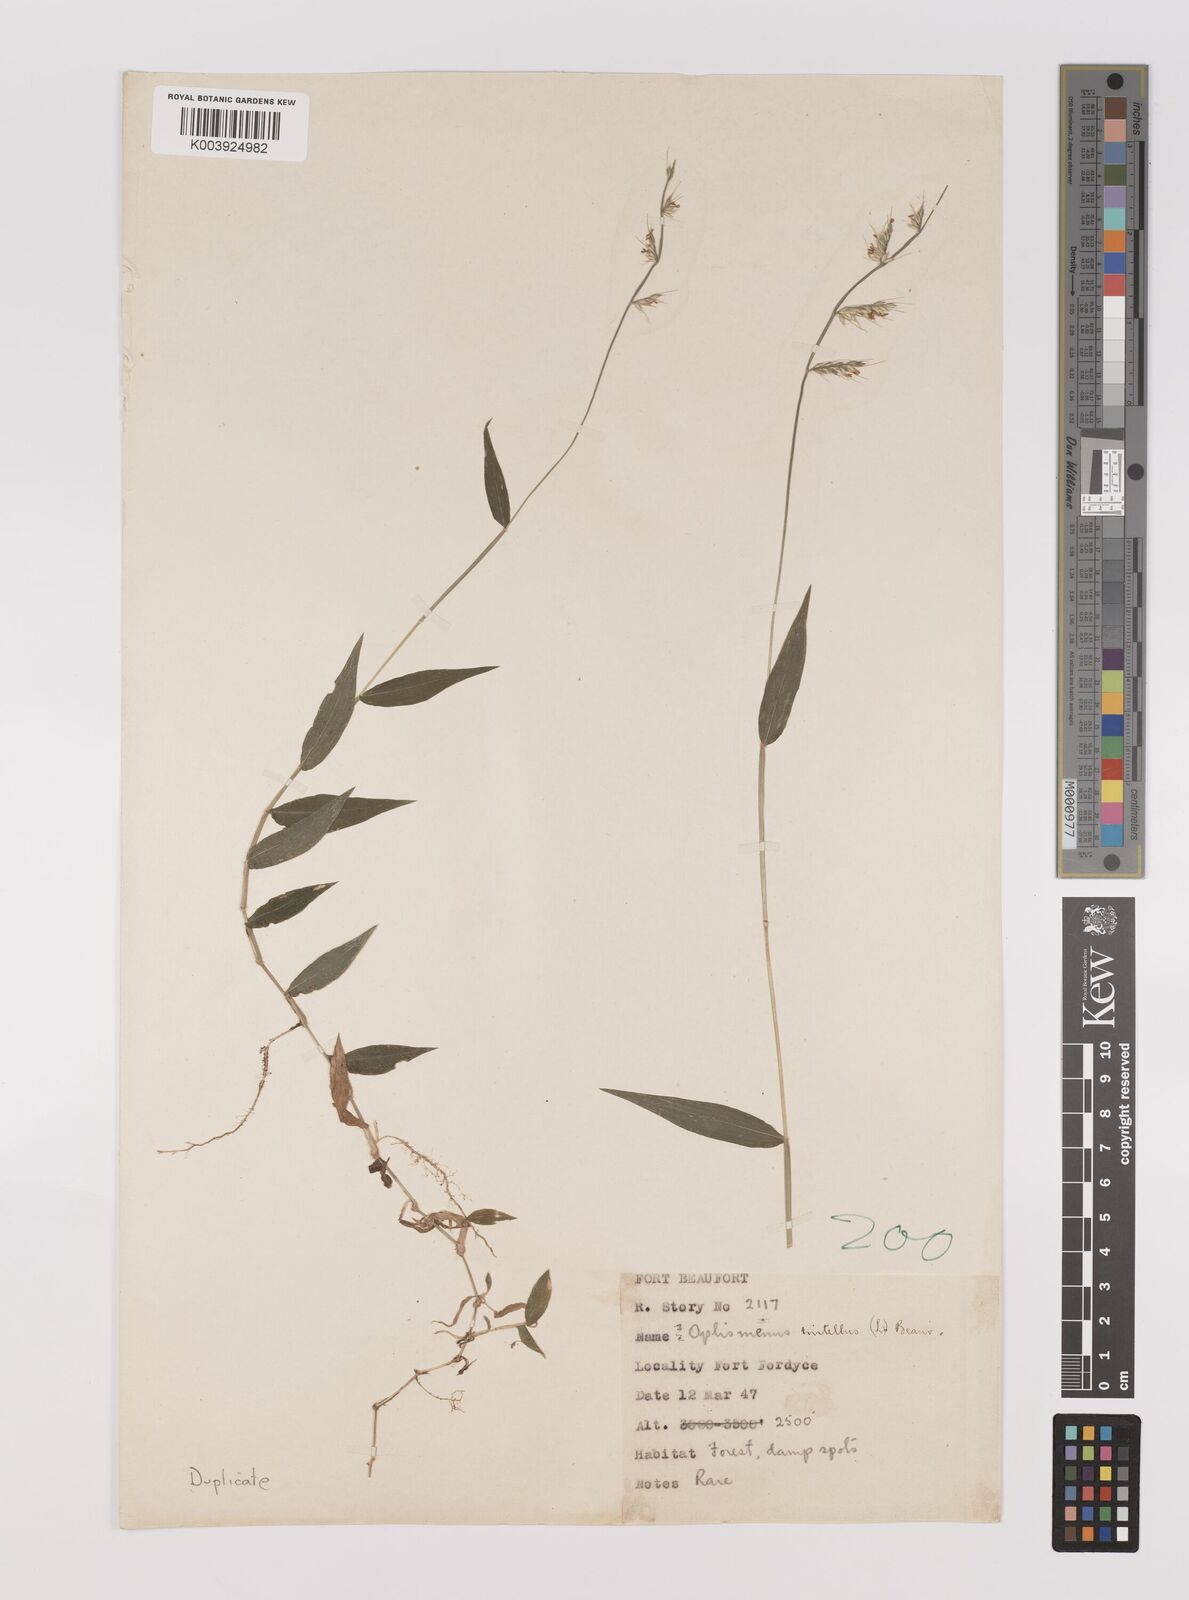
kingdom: Plantae
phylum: Tracheophyta
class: Liliopsida
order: Poales
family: Poaceae
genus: Oplismenus
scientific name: Oplismenus hirtellus
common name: Basketgrass
